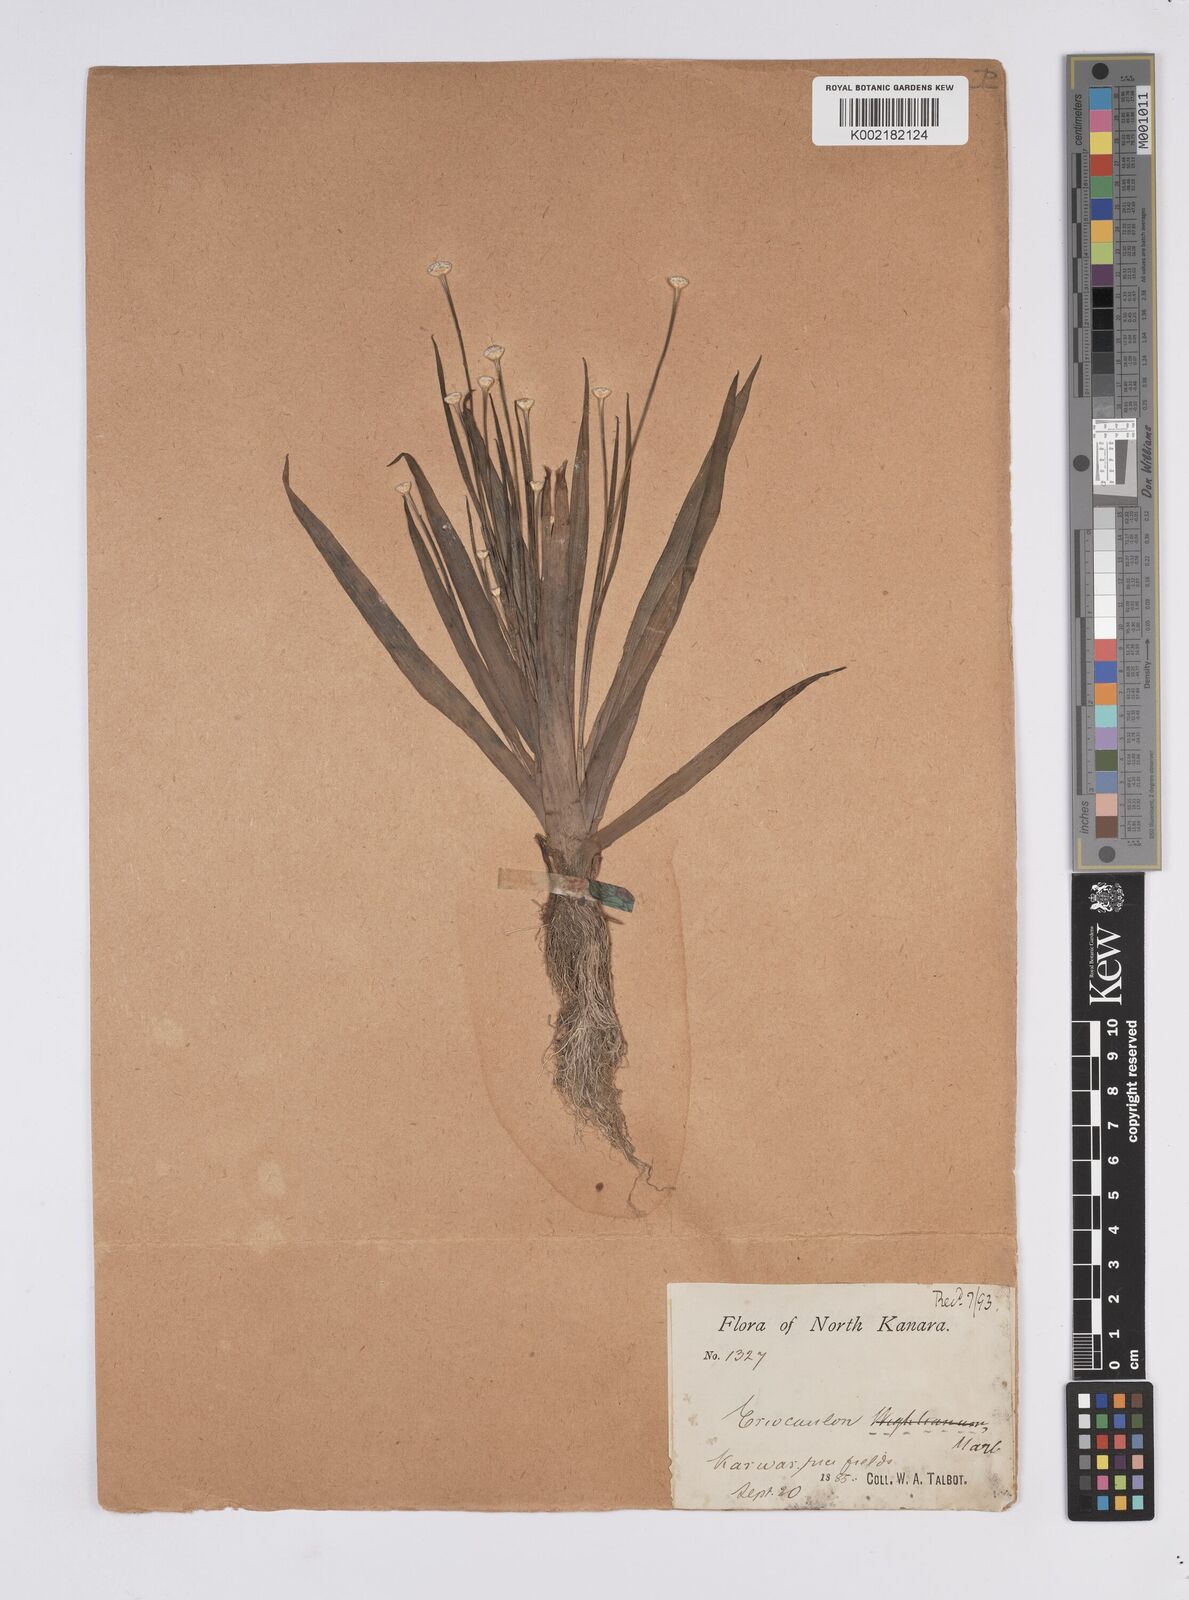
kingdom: Plantae
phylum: Tracheophyta
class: Liliopsida
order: Poales
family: Eriocaulaceae
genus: Eriocaulon
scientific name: Eriocaulon
